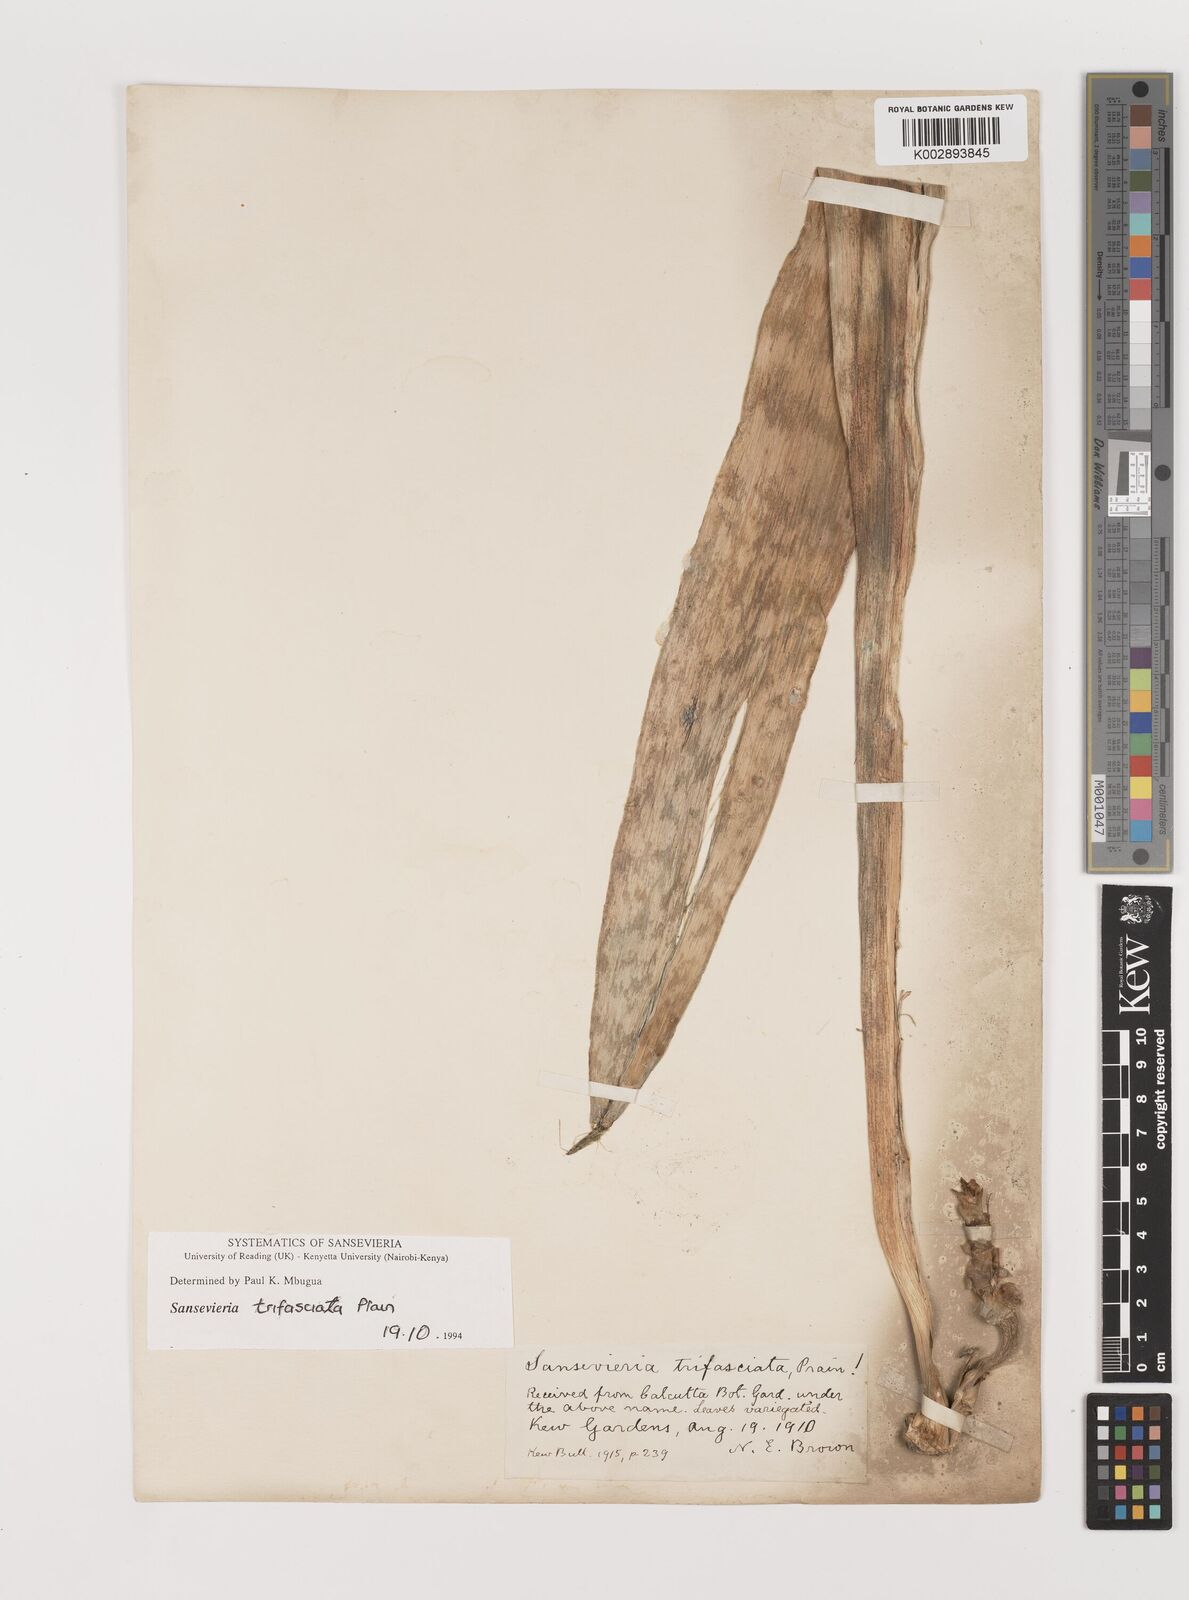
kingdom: Plantae
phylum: Tracheophyta
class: Liliopsida
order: Asparagales
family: Asparagaceae
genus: Dracaena
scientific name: Dracaena trifasciata
